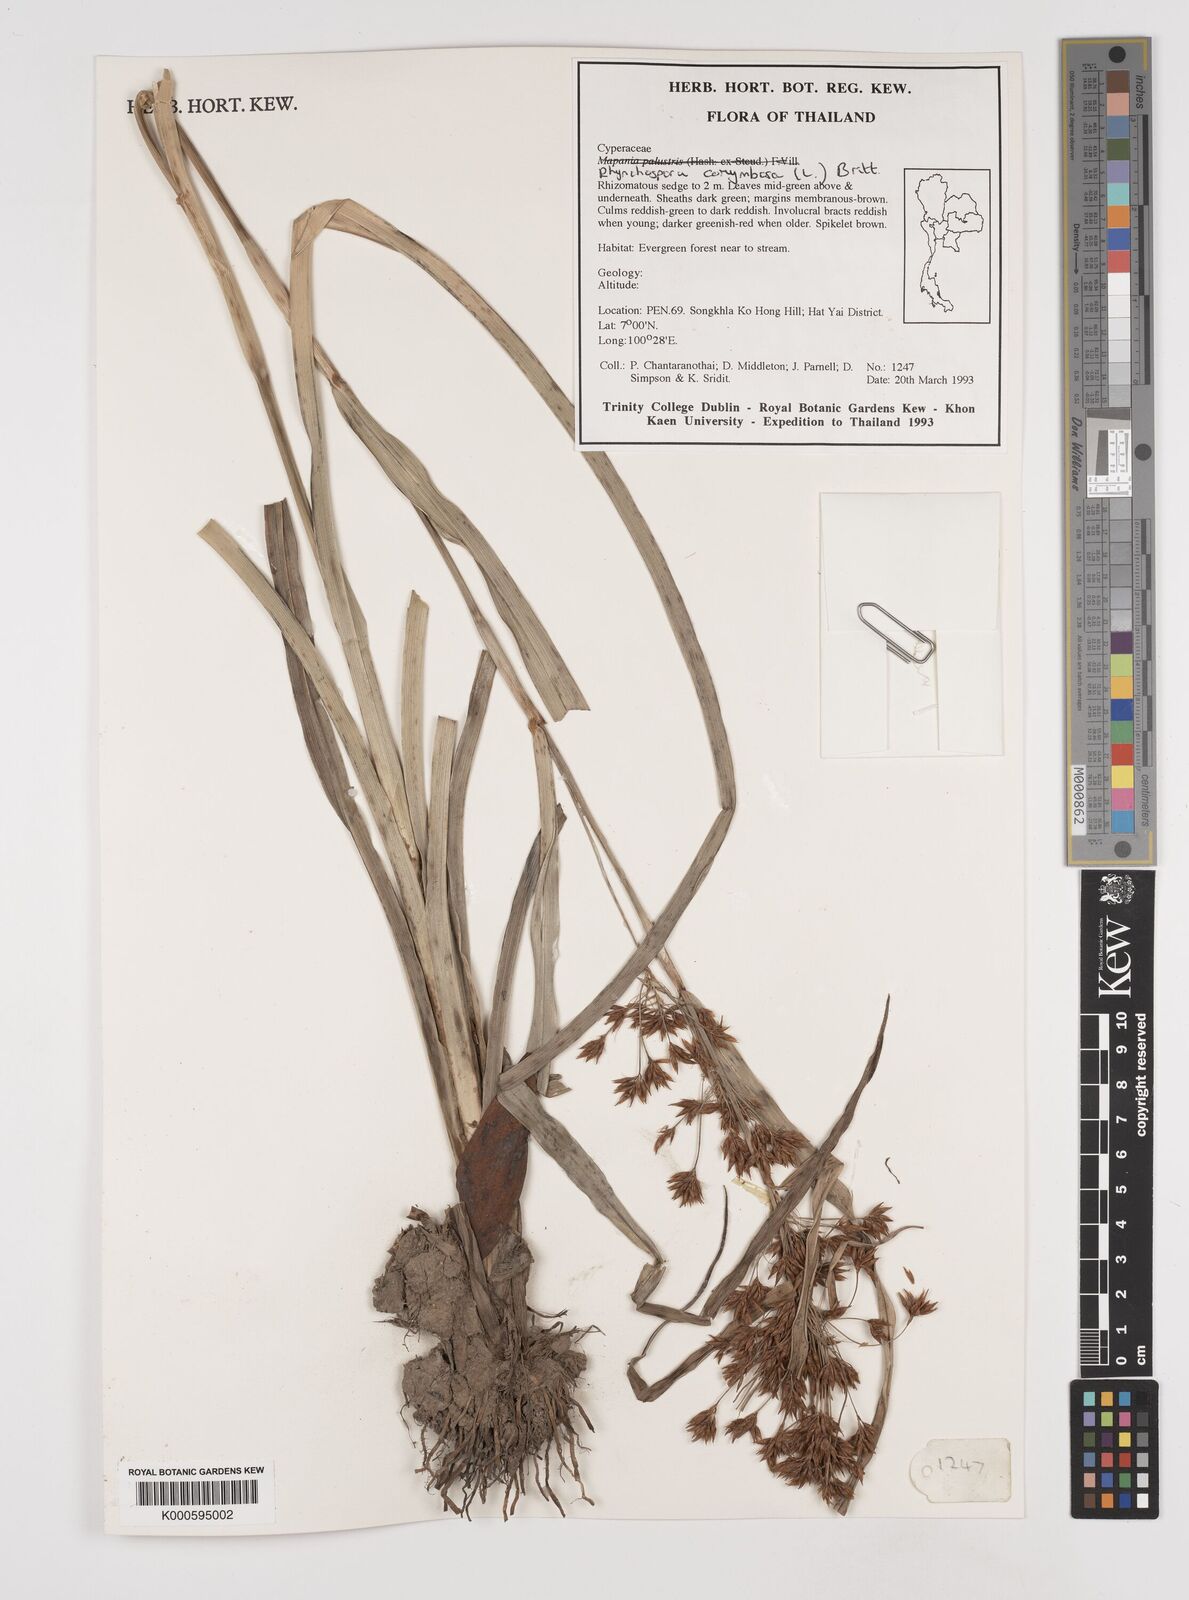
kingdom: Plantae
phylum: Tracheophyta
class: Liliopsida
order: Poales
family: Cyperaceae
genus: Rhynchospora
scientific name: Rhynchospora corymbosa
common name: Golden beak sedge
